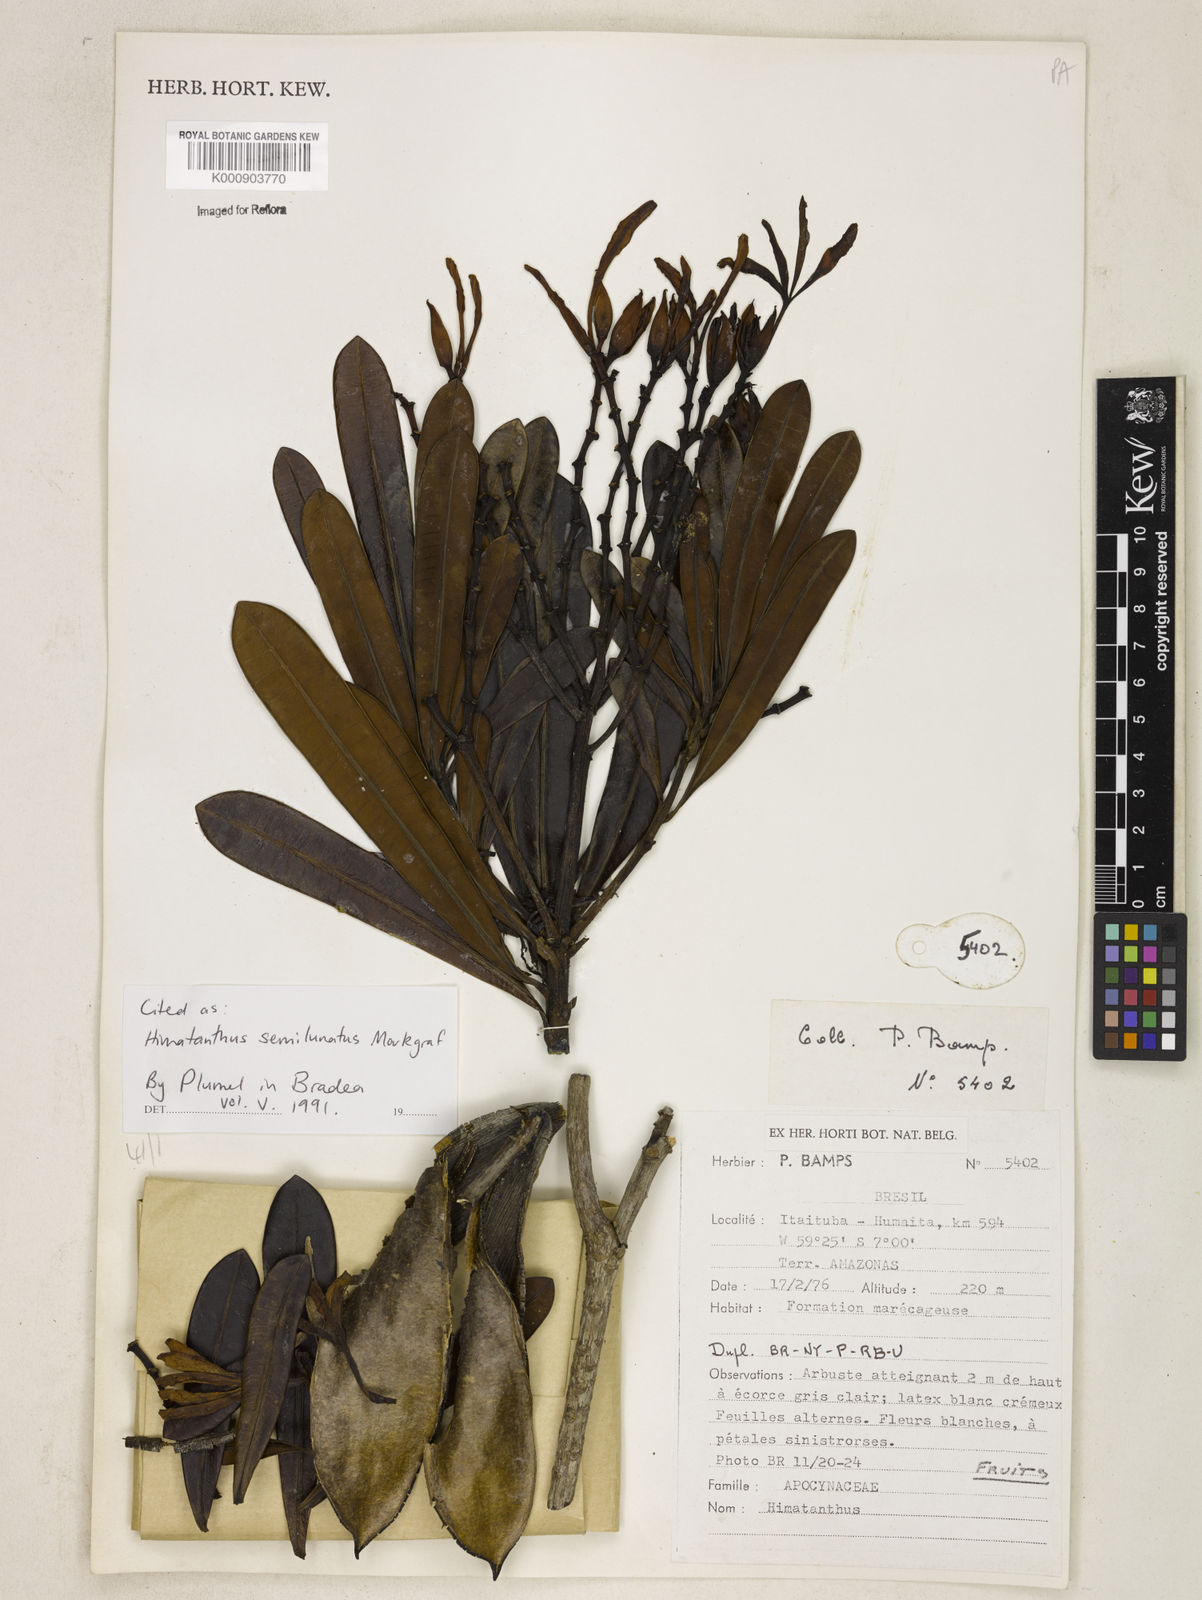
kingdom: Plantae
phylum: Tracheophyta
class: Magnoliopsida
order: Gentianales
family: Apocynaceae
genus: Himatanthus
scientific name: Himatanthus semilunatus
